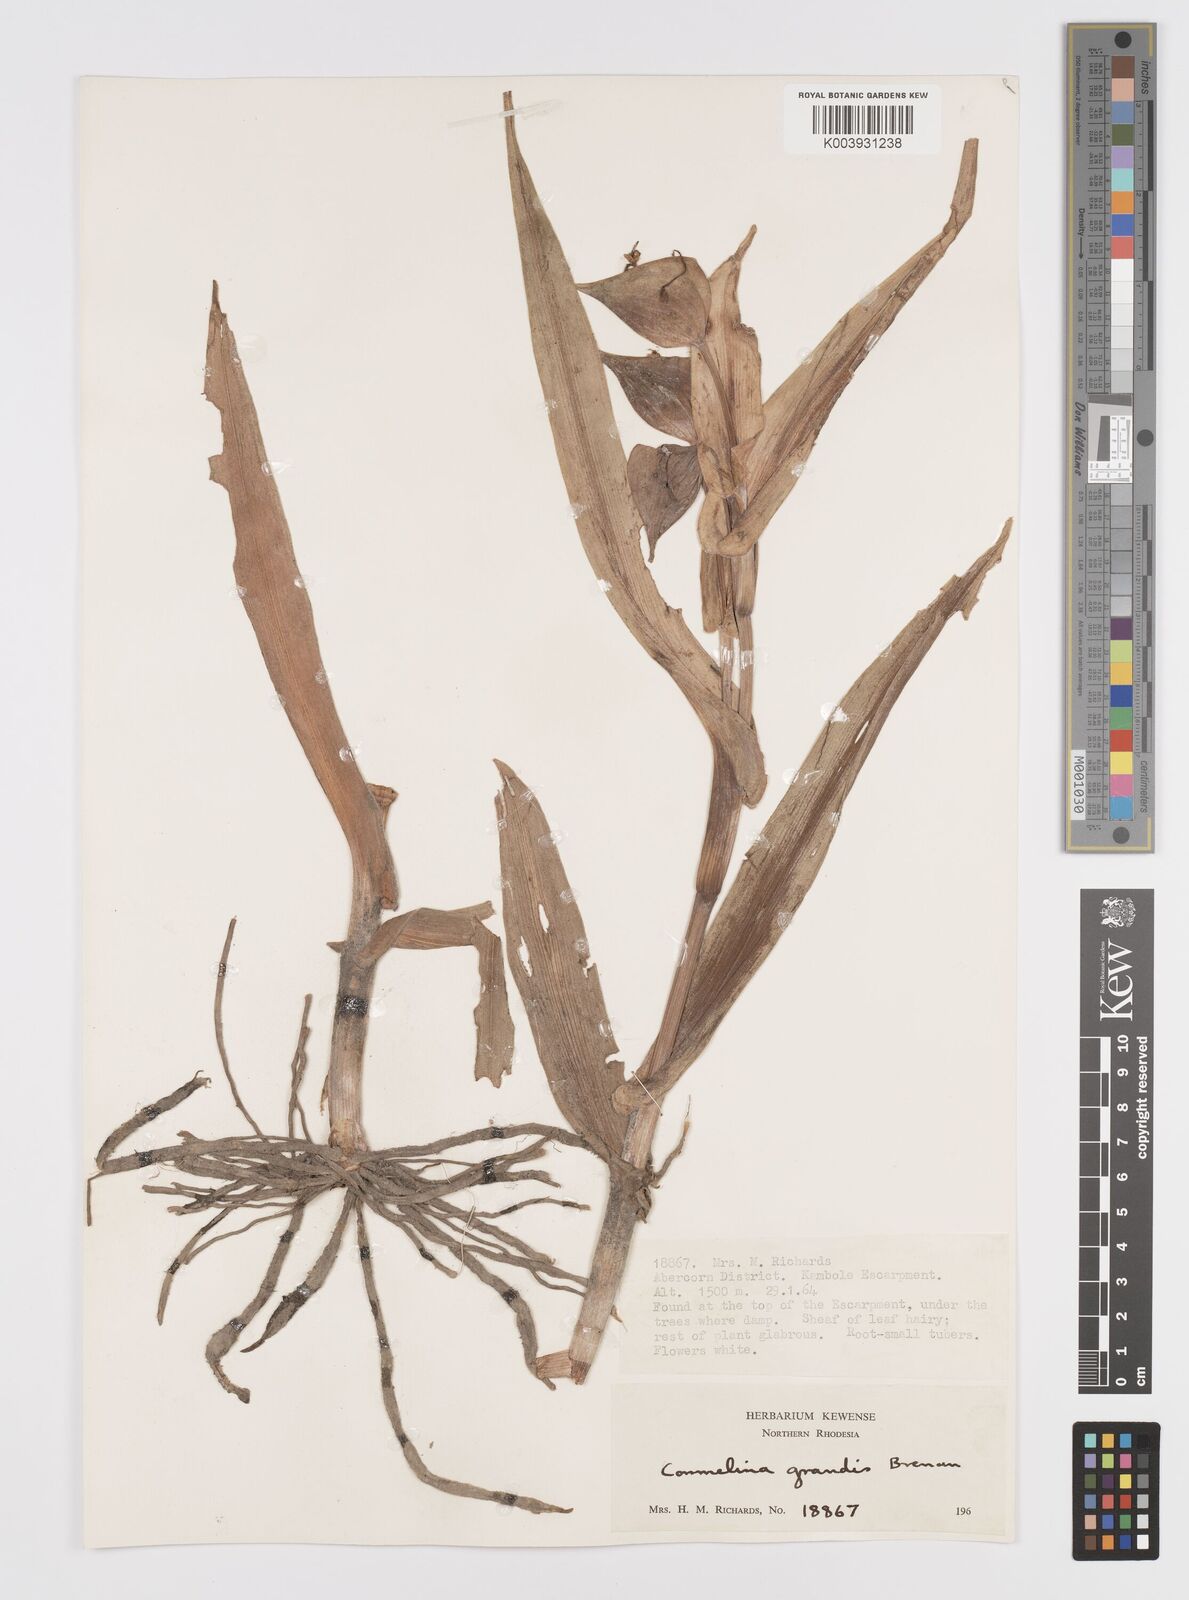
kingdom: Plantae
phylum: Tracheophyta
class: Liliopsida
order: Commelinales
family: Commelinaceae
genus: Commelina
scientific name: Commelina grandis
